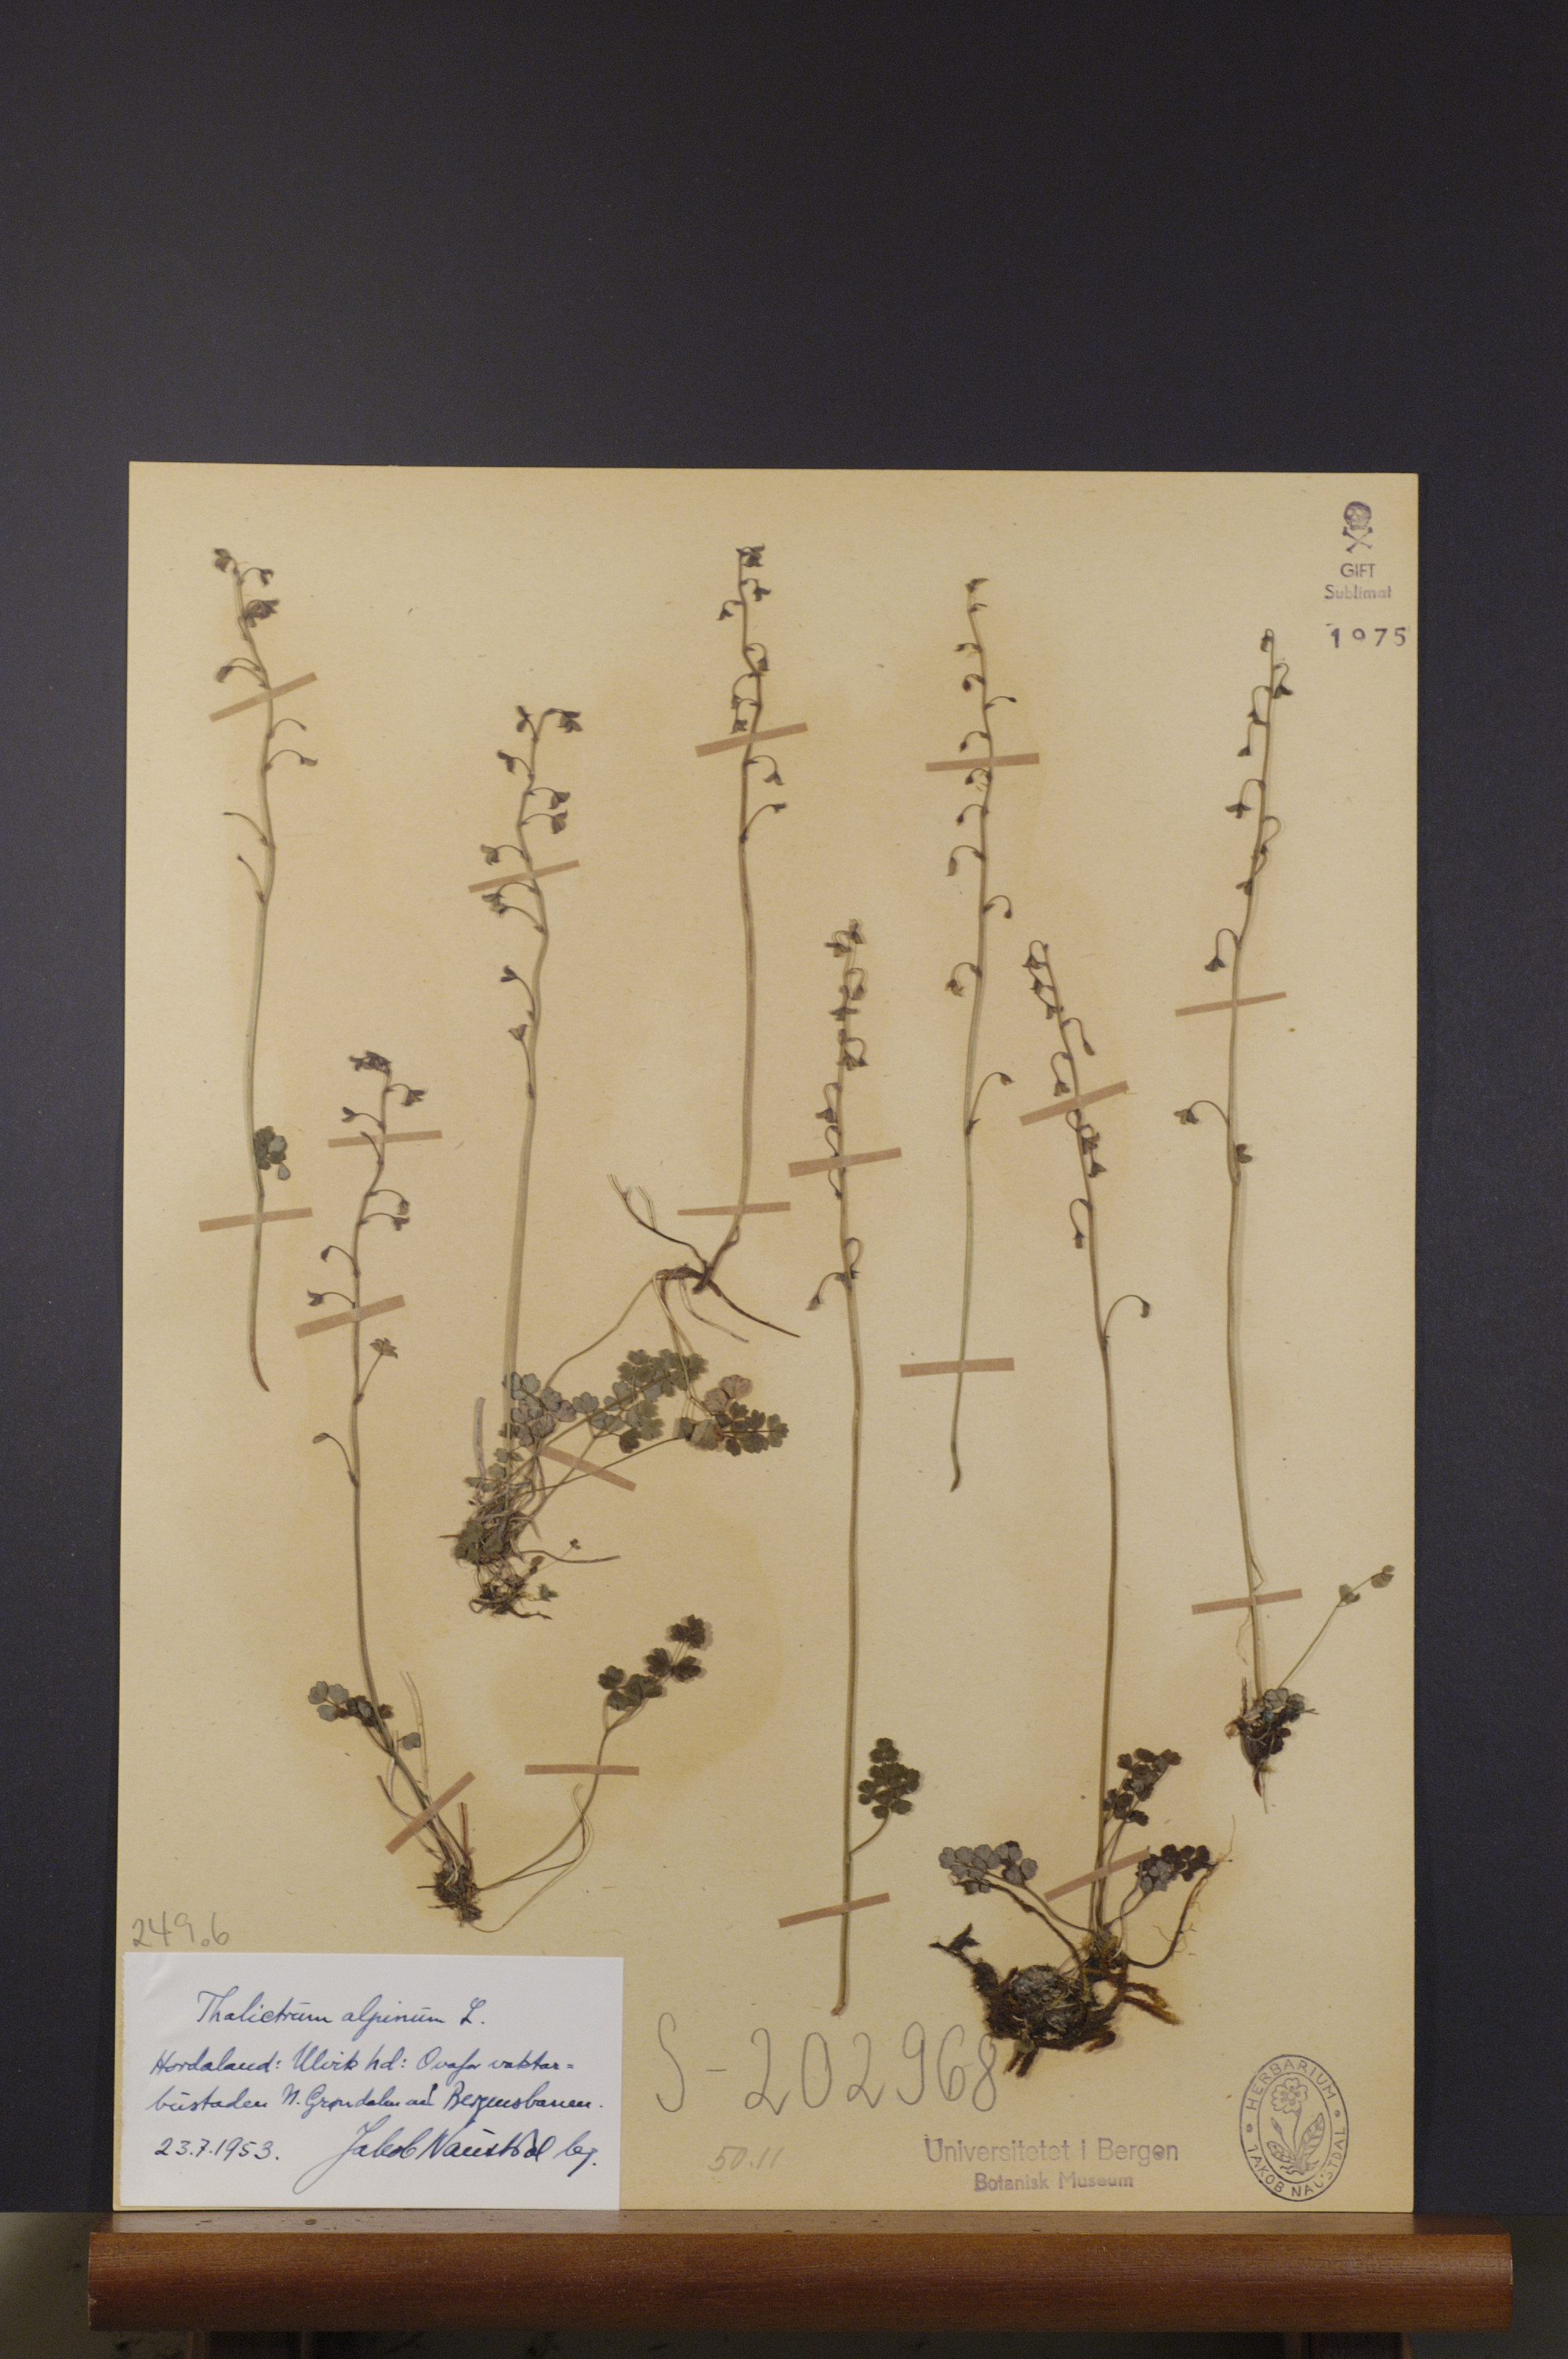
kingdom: Plantae
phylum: Tracheophyta
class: Magnoliopsida
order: Ranunculales
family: Ranunculaceae
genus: Thalictrum
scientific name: Thalictrum alpinum
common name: Alpine meadow-rue
